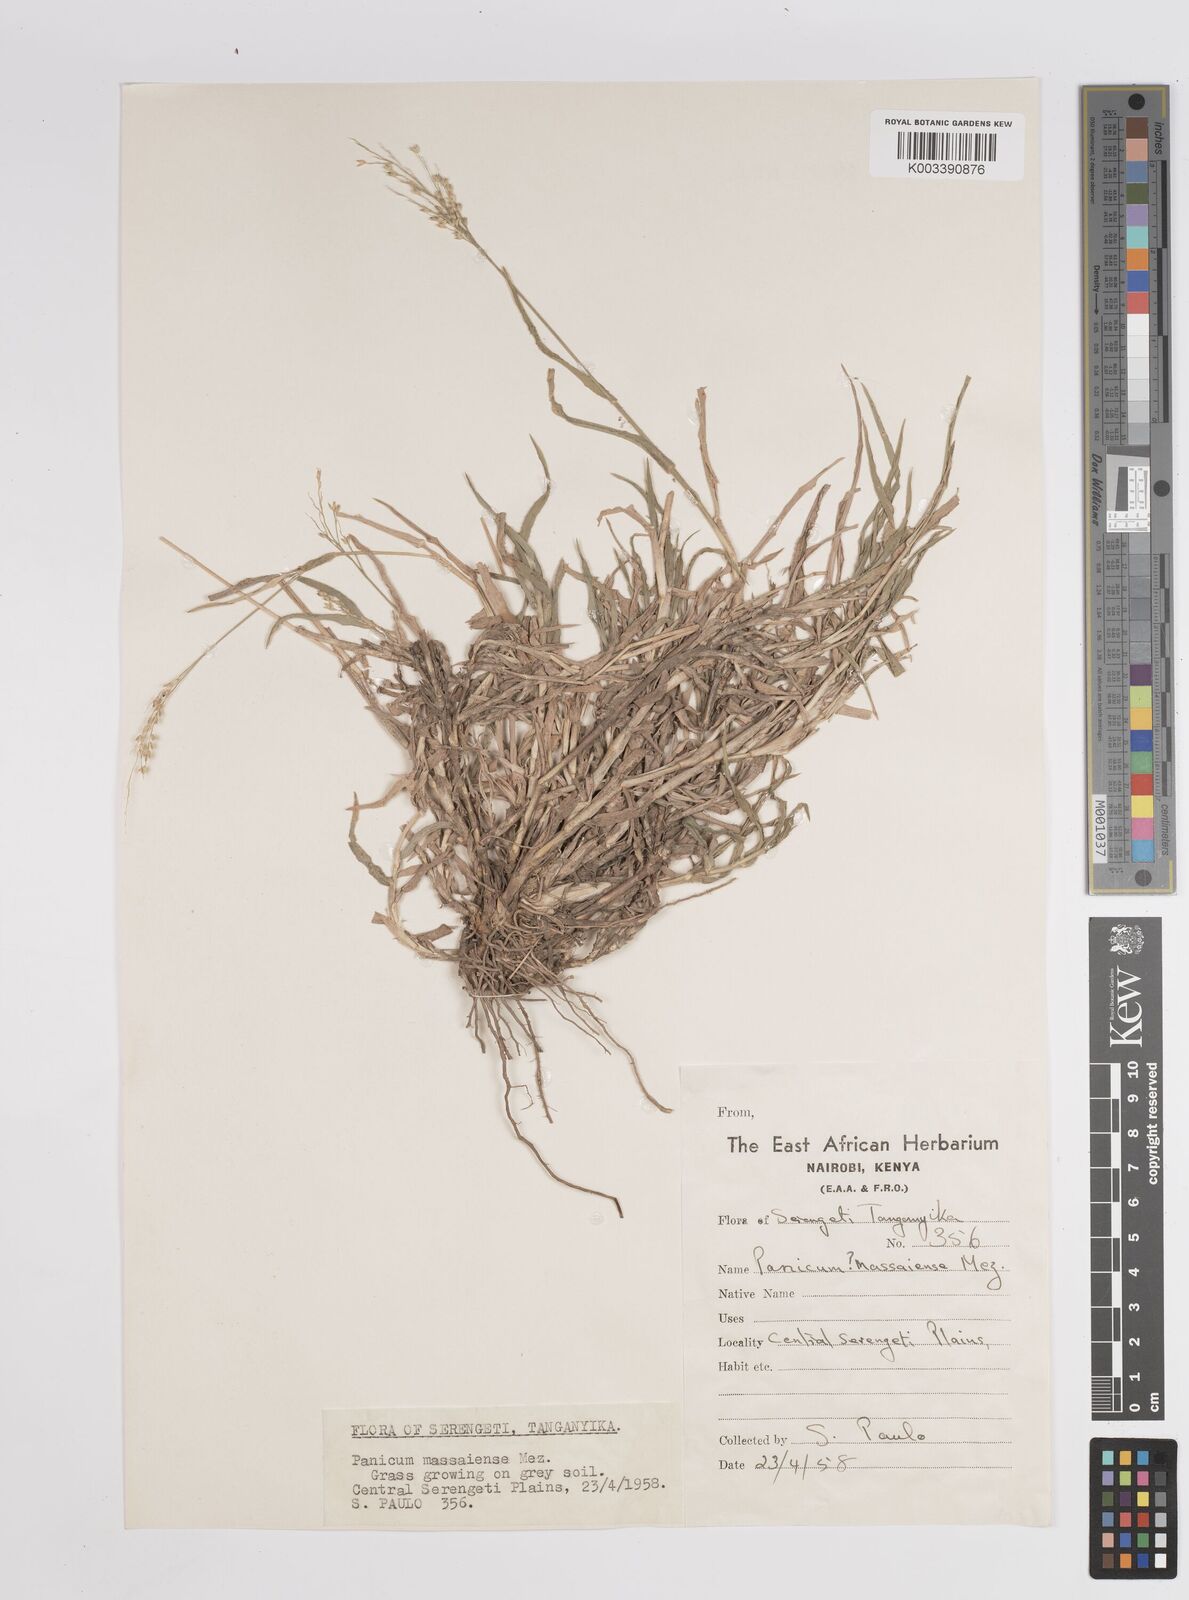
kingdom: Plantae
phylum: Tracheophyta
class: Liliopsida
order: Poales
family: Poaceae
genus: Panicum
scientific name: Panicum coloratum
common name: Kleingrass
